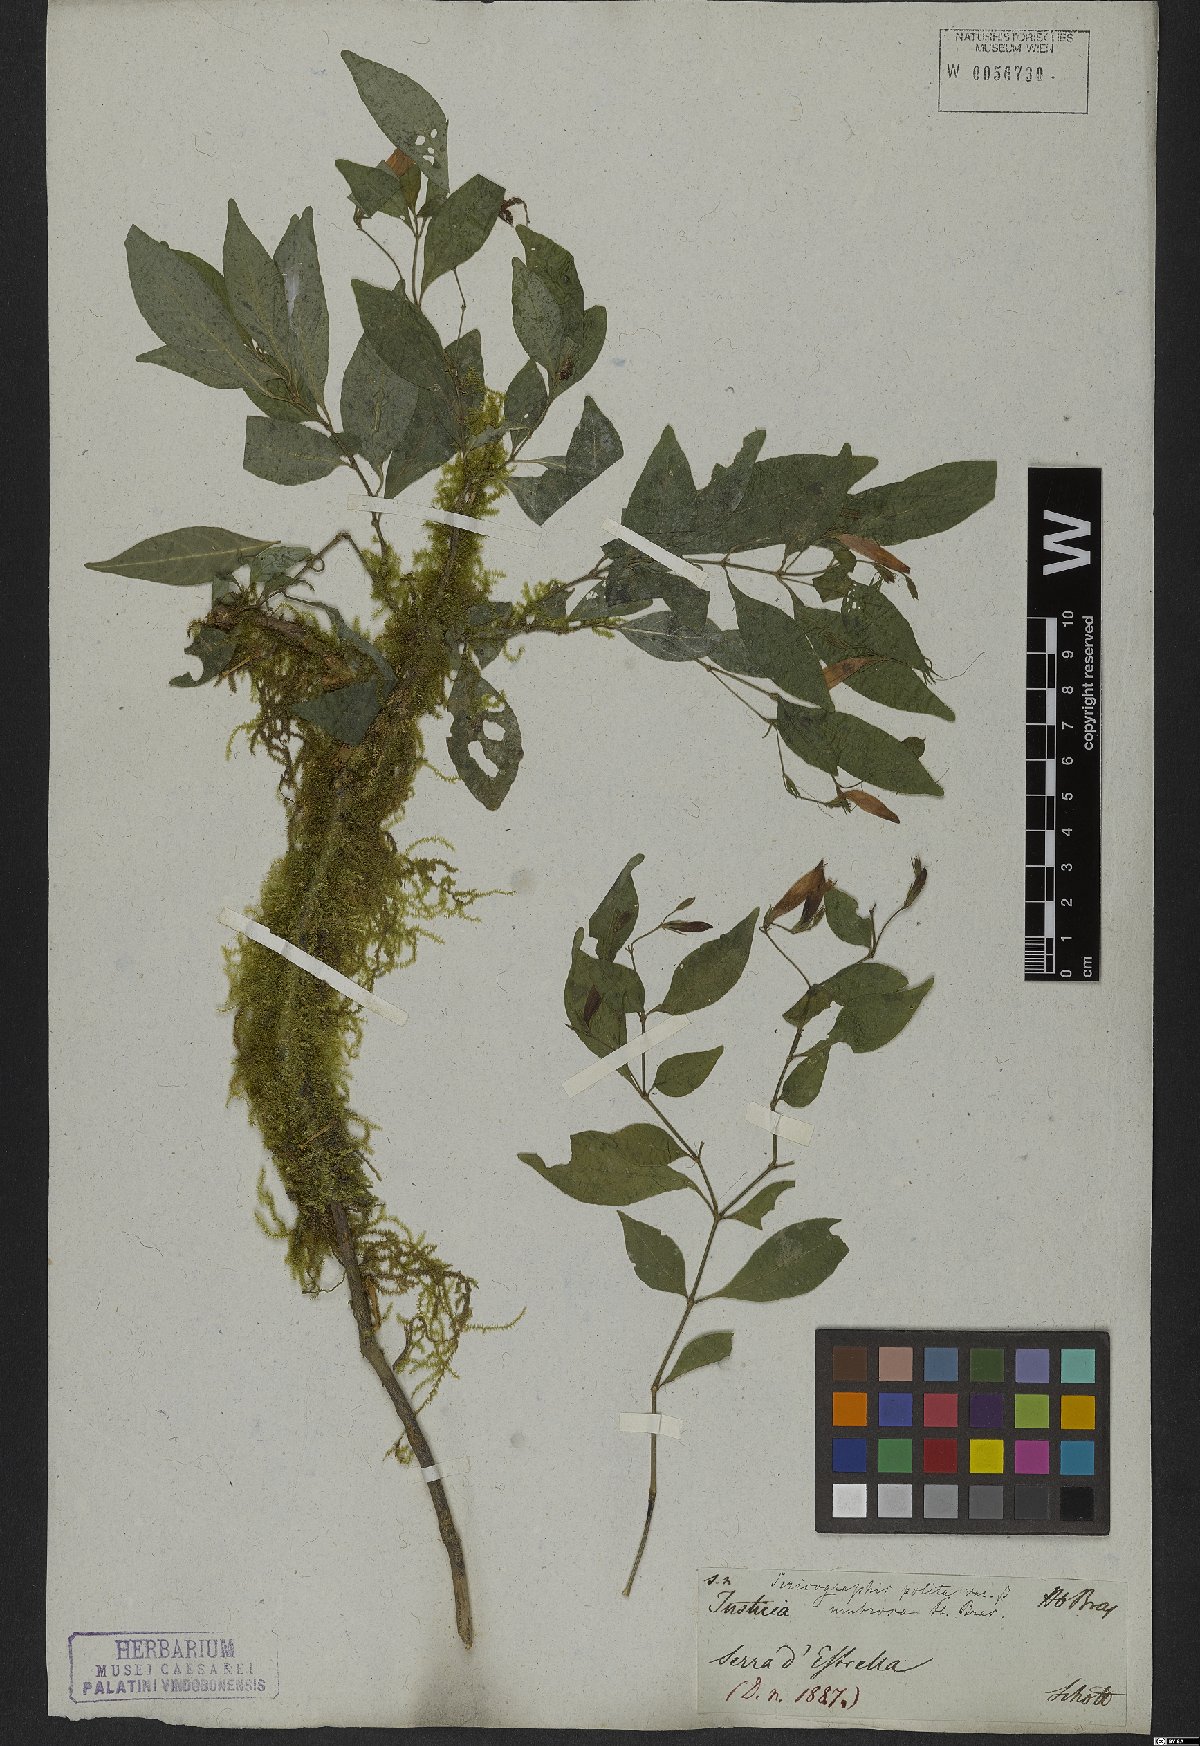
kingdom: Plantae
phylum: Tracheophyta
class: Magnoliopsida
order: Lamiales
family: Acanthaceae
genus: Justicia
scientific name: Justicia polita
